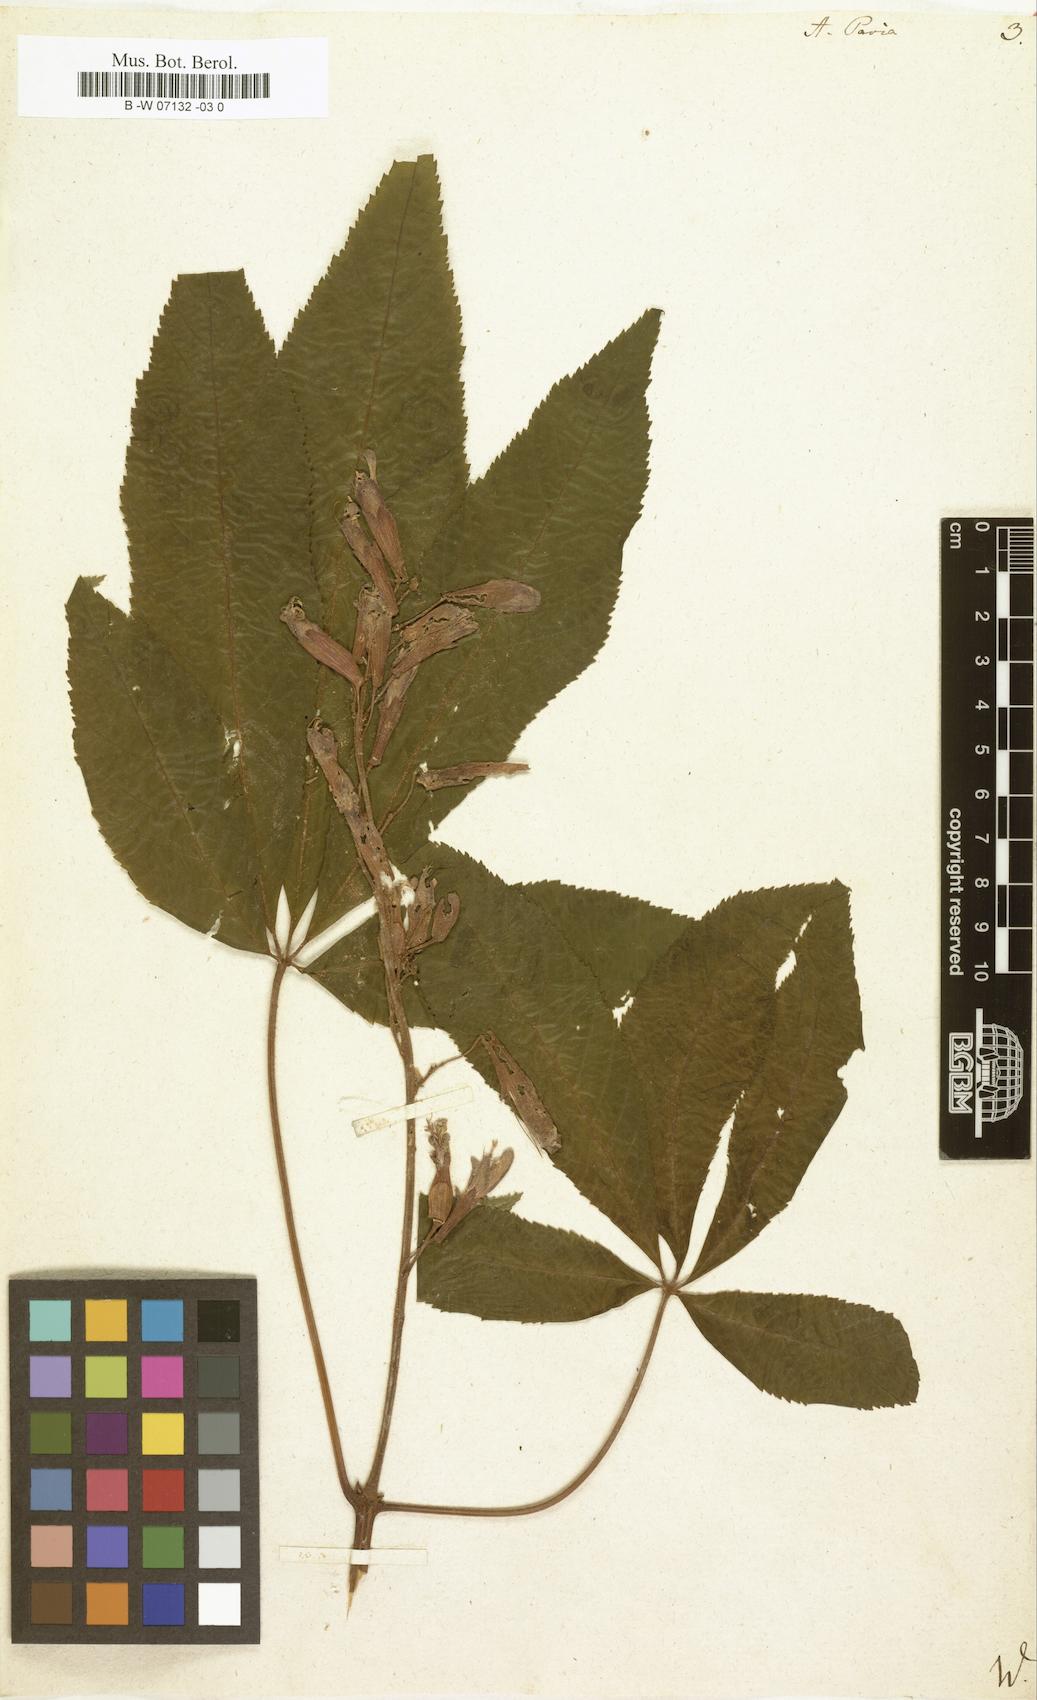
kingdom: Plantae
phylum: Tracheophyta
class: Magnoliopsida
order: Sapindales
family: Sapindaceae
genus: Aesculus
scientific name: Aesculus pavia
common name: Red buckeye
